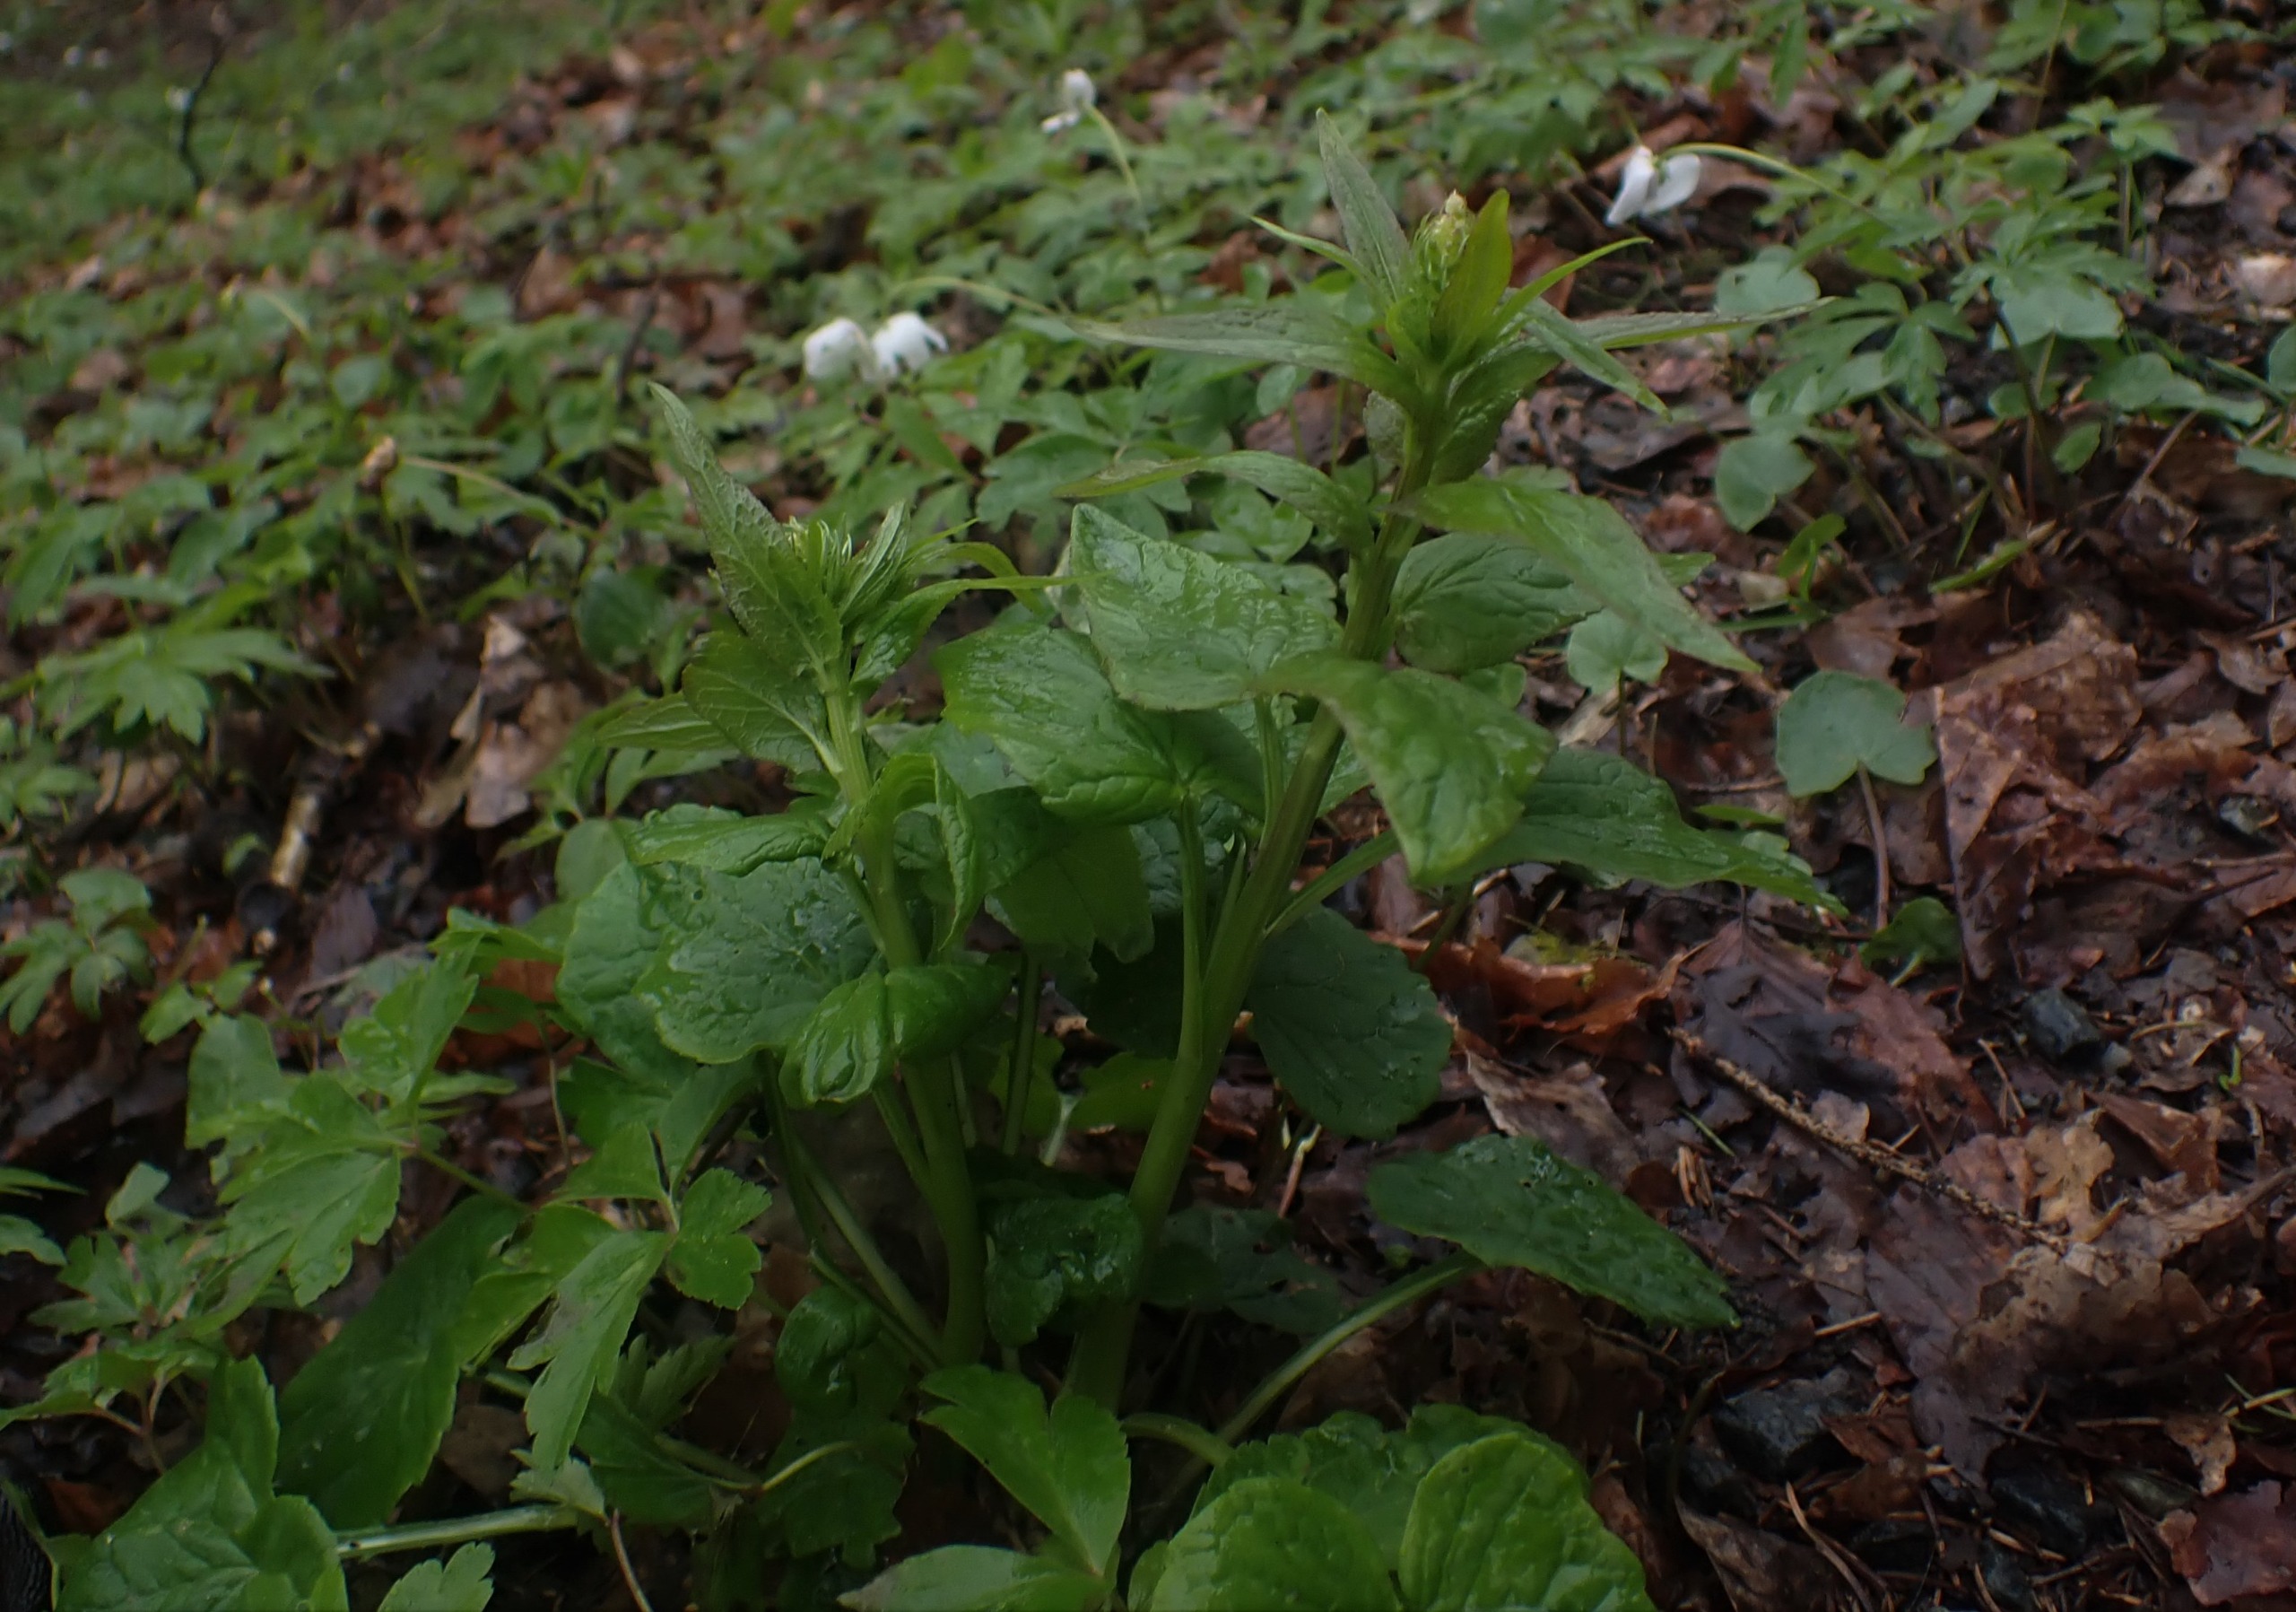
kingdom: Plantae
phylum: Tracheophyta
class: Magnoliopsida
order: Asterales
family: Campanulaceae
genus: Phyteuma
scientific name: Phyteuma spicatum
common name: Aks-rapunsel
